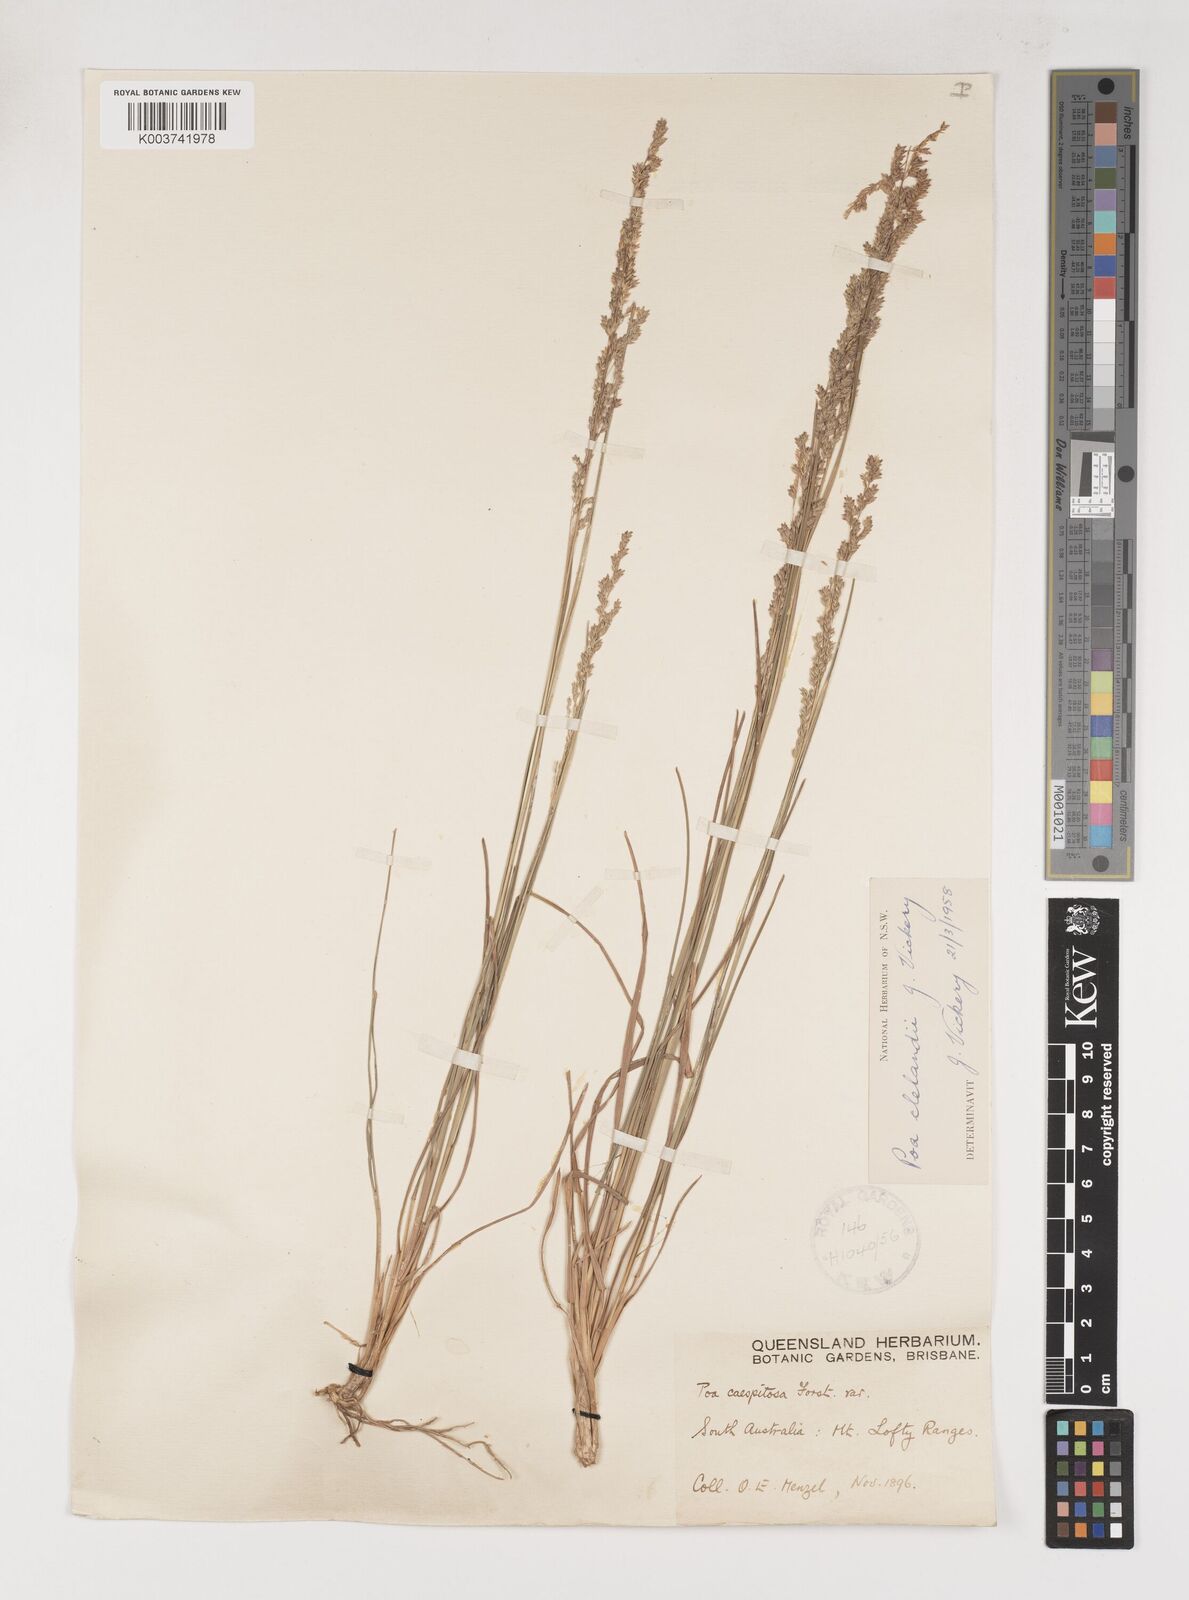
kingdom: Plantae
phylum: Tracheophyta
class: Liliopsida
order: Poales
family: Poaceae
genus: Poa
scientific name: Poa clelandii
